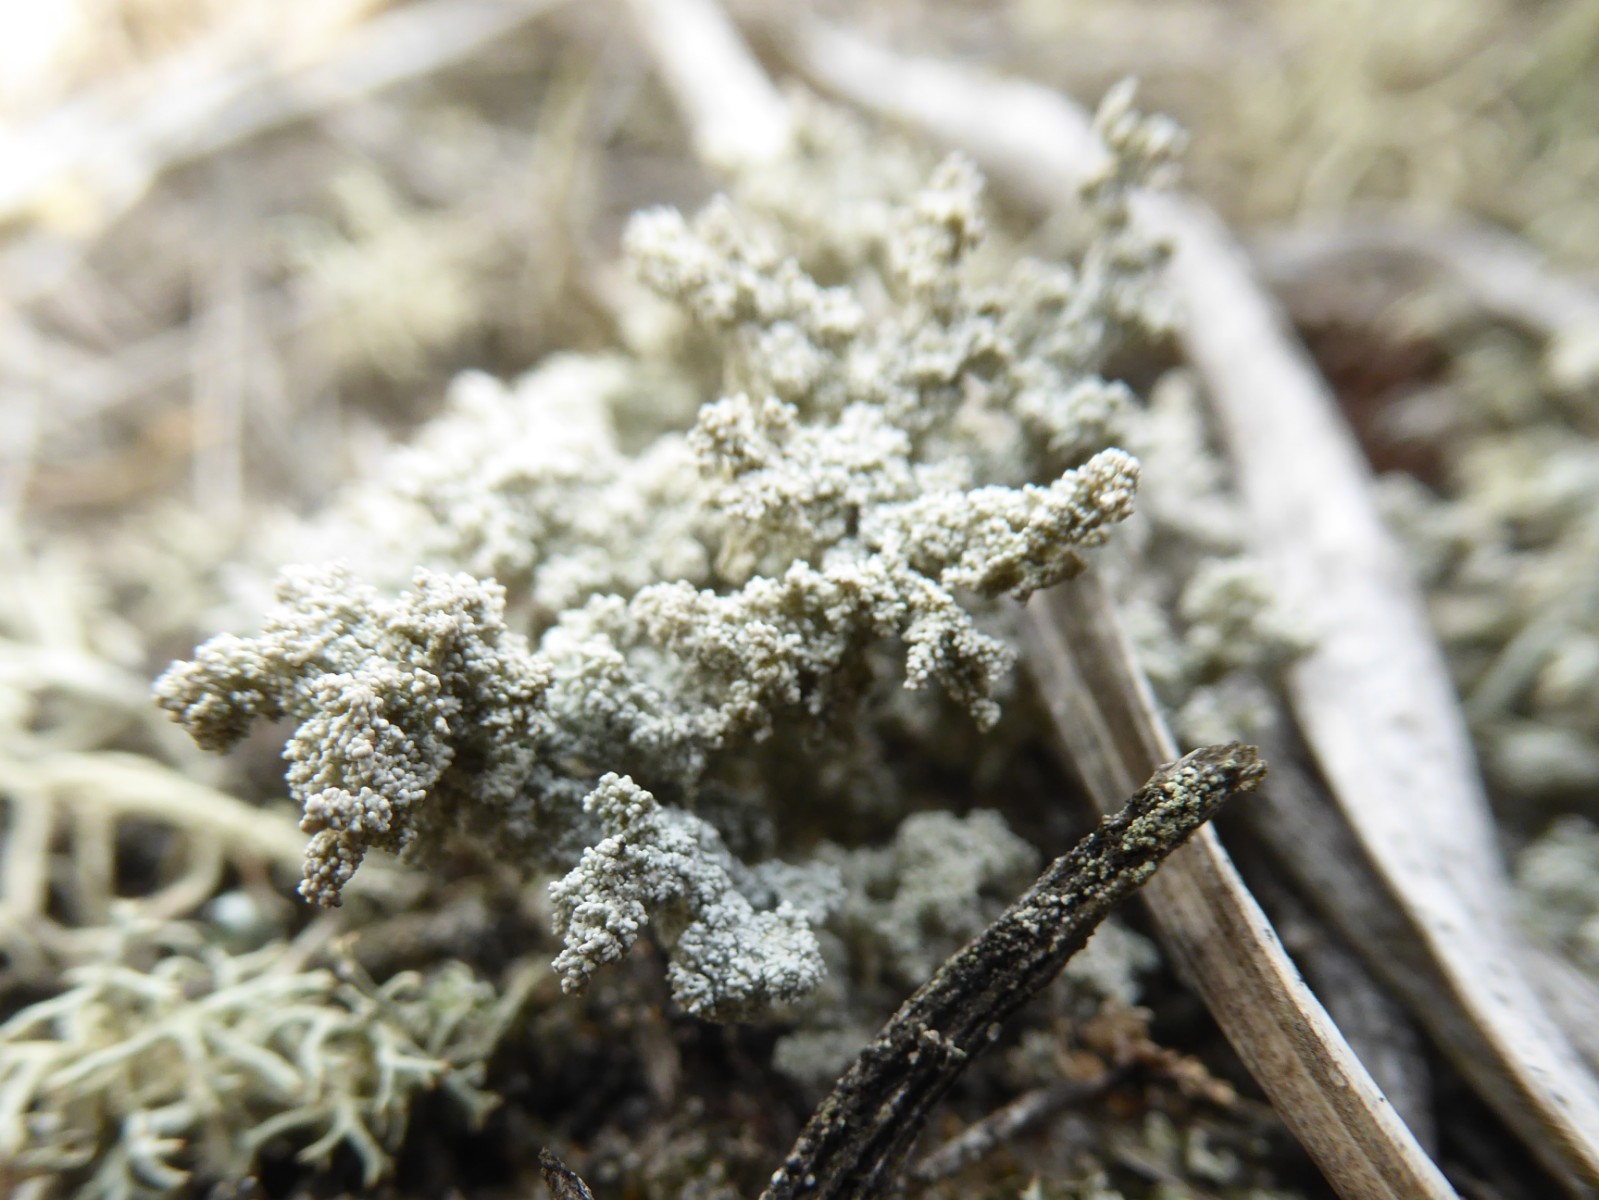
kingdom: Fungi
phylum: Ascomycota
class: Lecanoromycetes
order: Lecanorales
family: Stereocaulaceae
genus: Stereocaulon
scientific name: Stereocaulon saxatile
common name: klit-korallav
